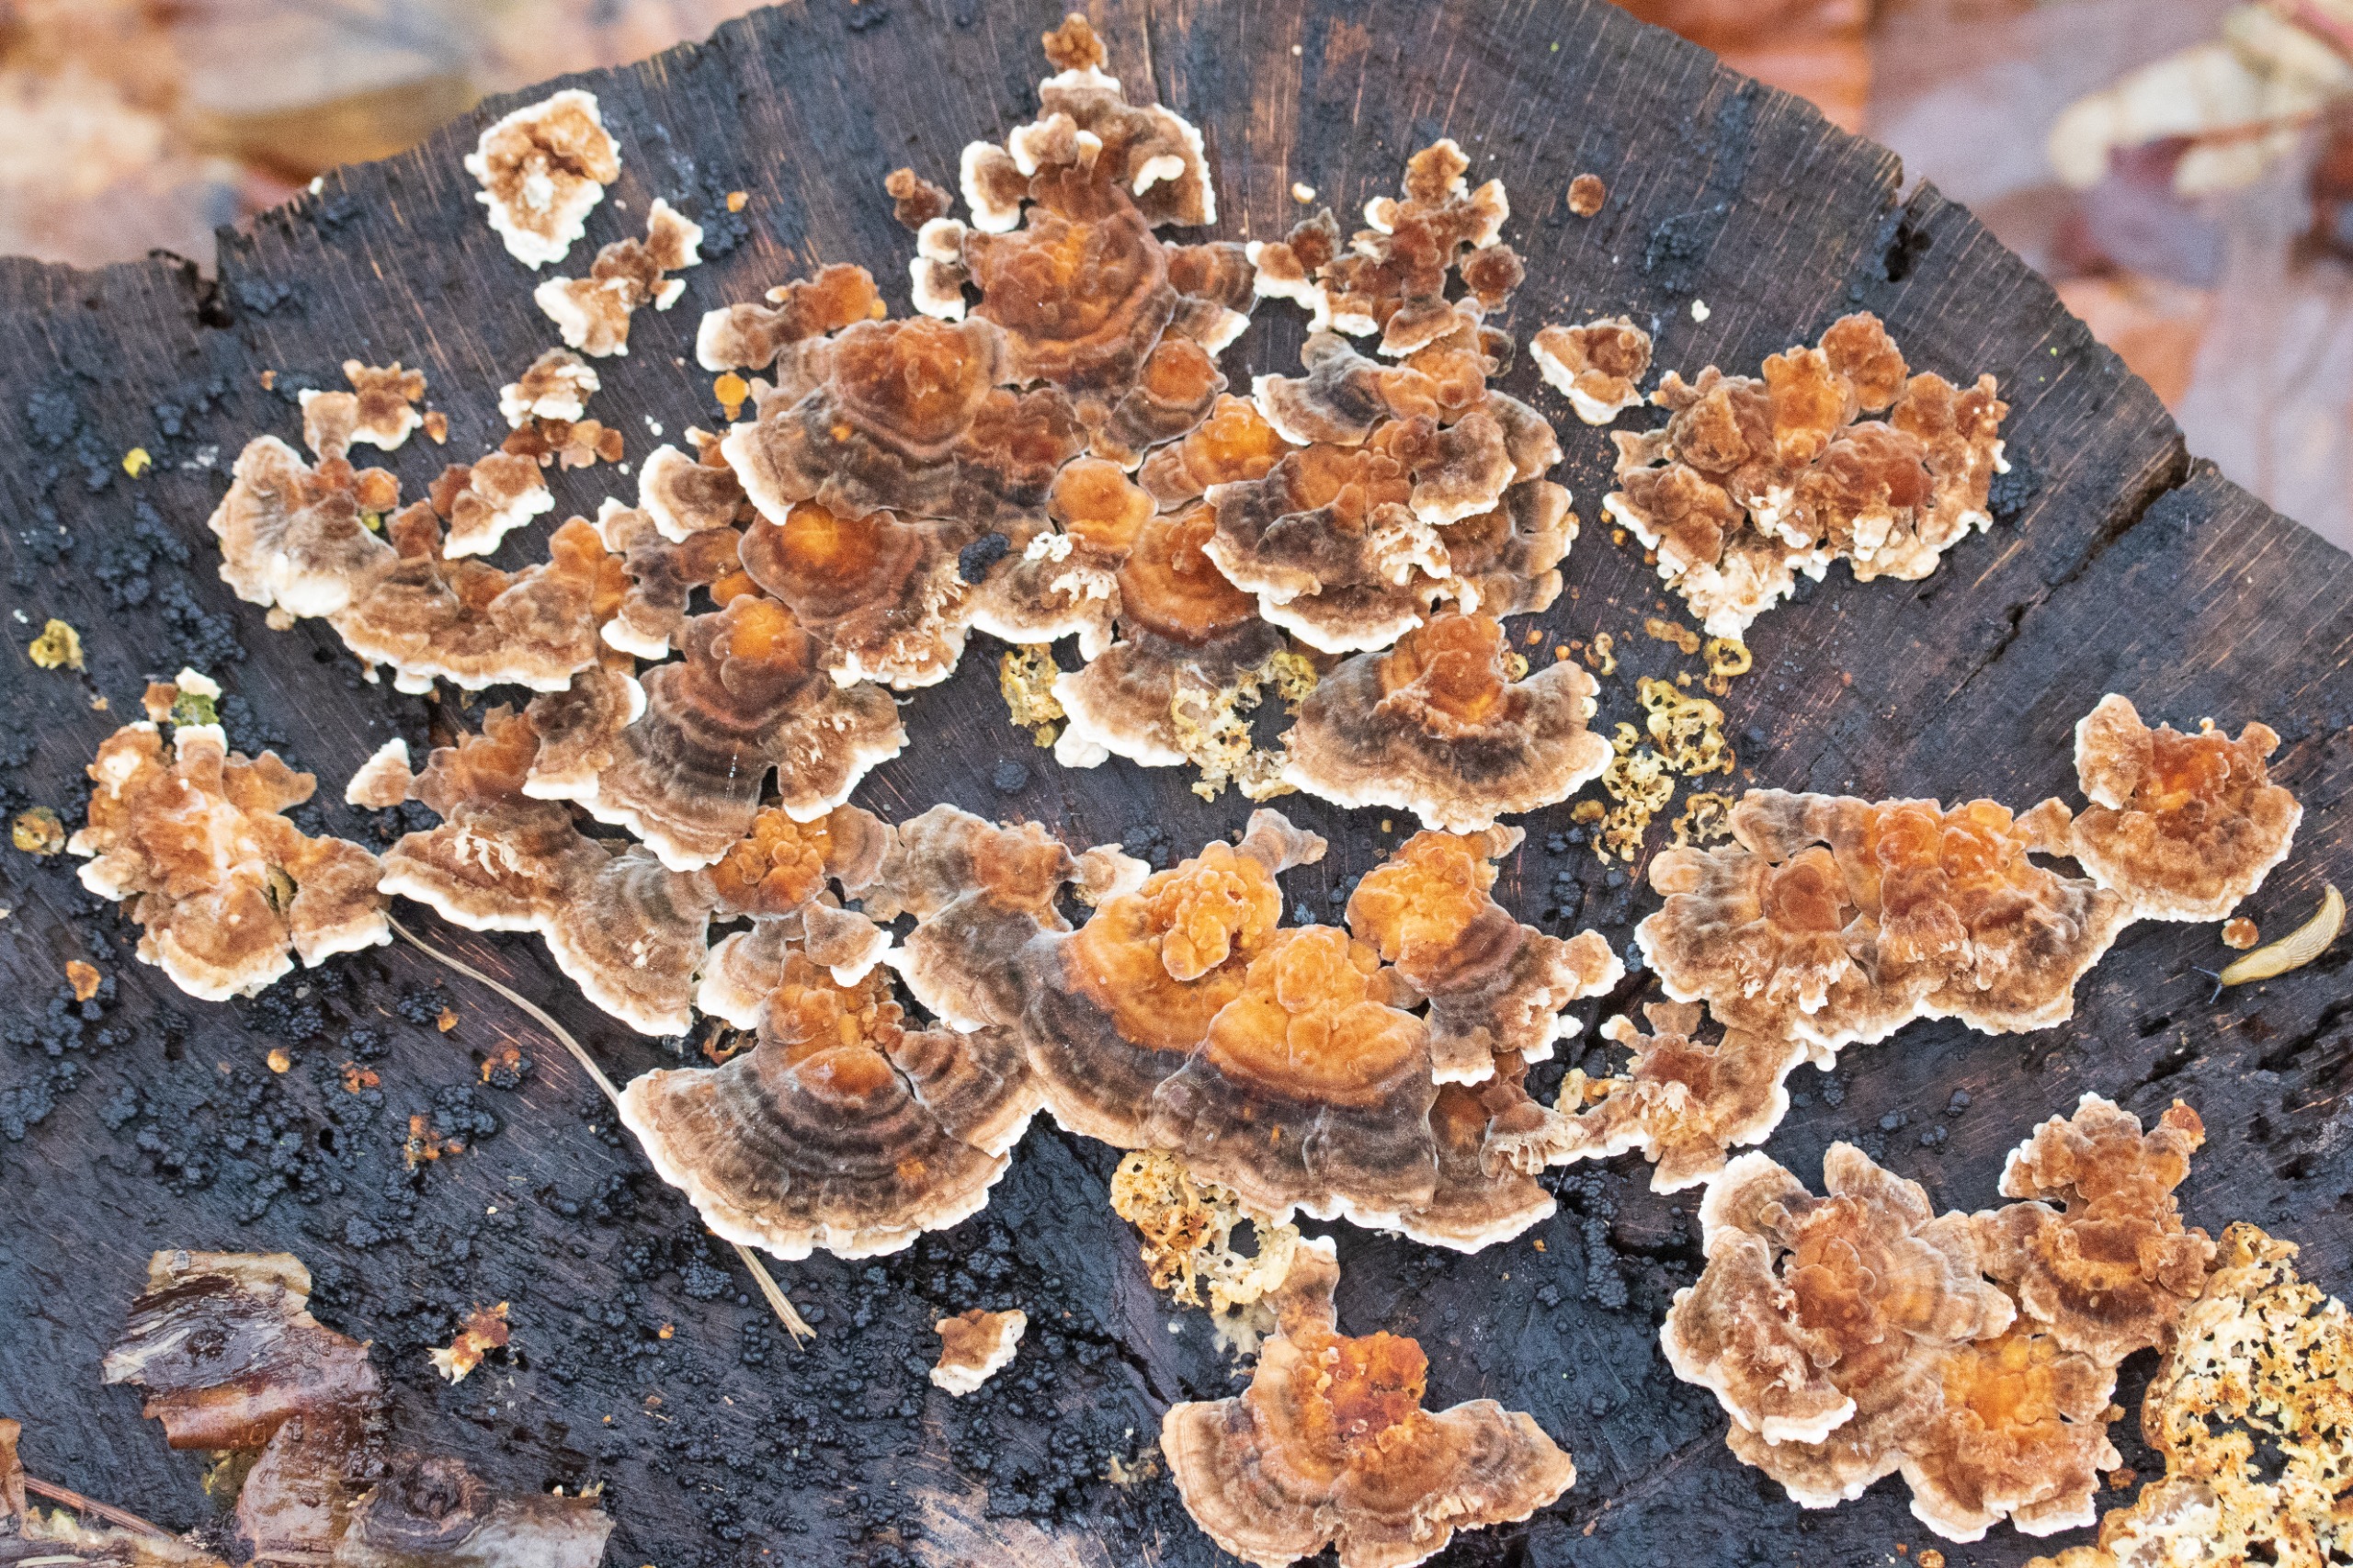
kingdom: Fungi
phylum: Basidiomycota
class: Agaricomycetes
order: Polyporales
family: Polyporaceae
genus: Trametes
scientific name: Trametes versicolor
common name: Broget læderporesvamp
